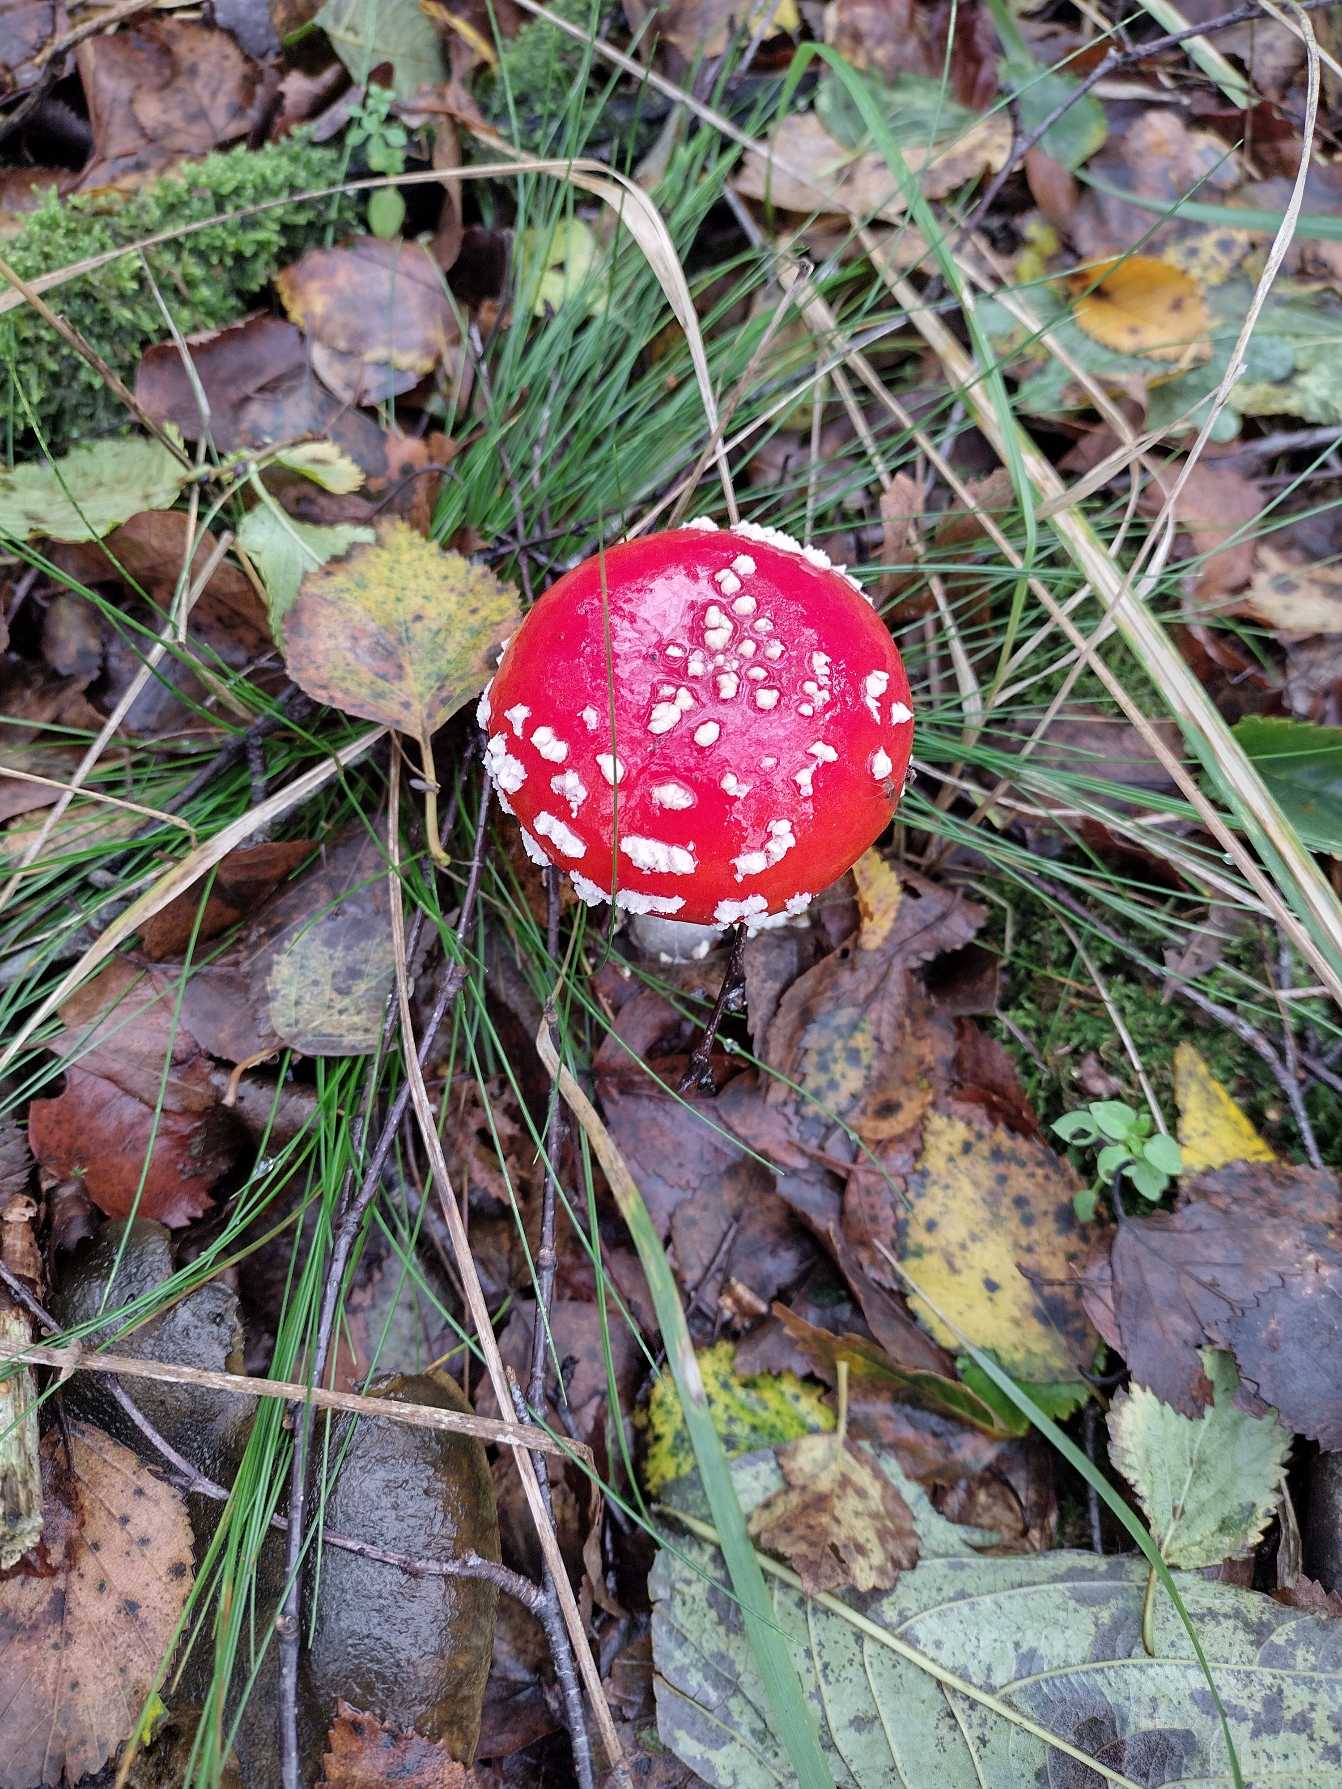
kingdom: Fungi
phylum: Basidiomycota
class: Agaricomycetes
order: Agaricales
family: Amanitaceae
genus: Amanita
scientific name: Amanita muscaria
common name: Rød fluesvamp
